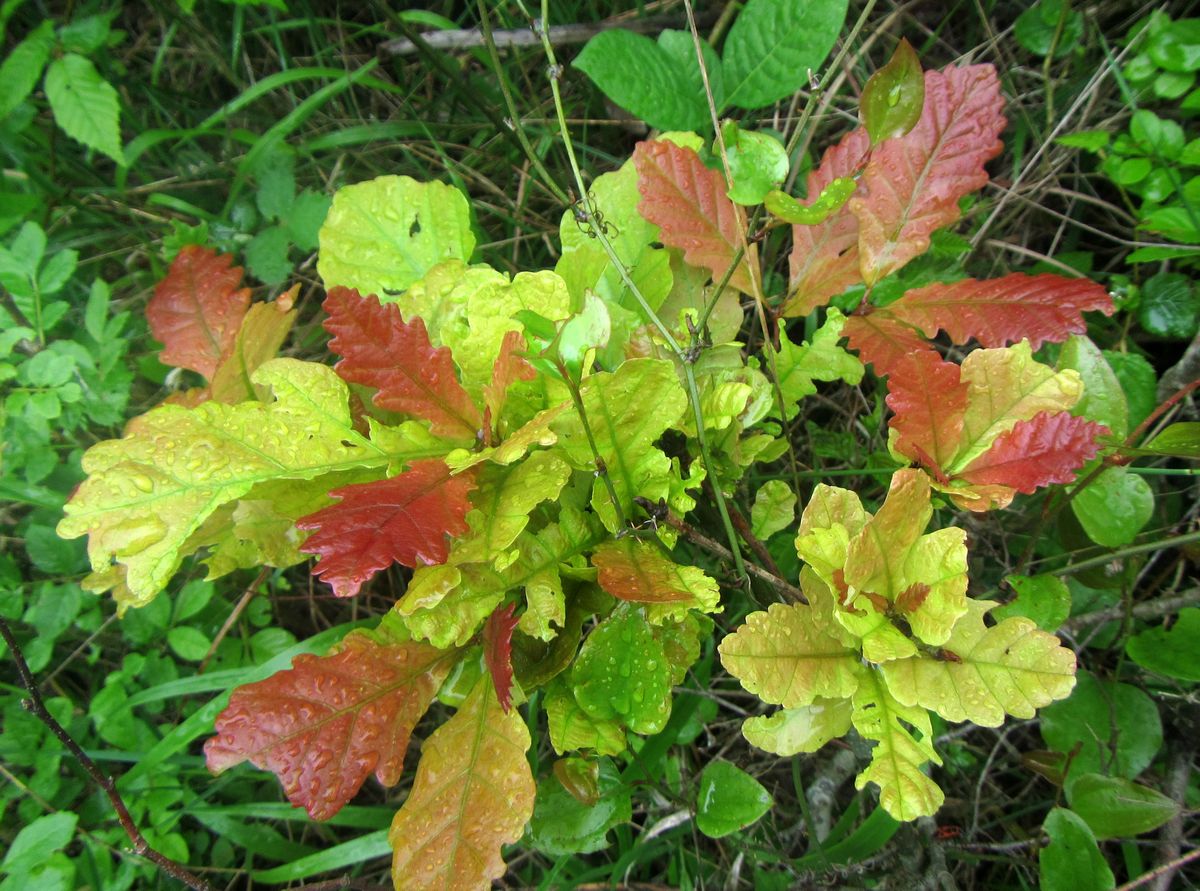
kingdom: Plantae
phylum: Tracheophyta
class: Magnoliopsida
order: Fagales
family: Fagaceae
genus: Quercus
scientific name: Quercus
